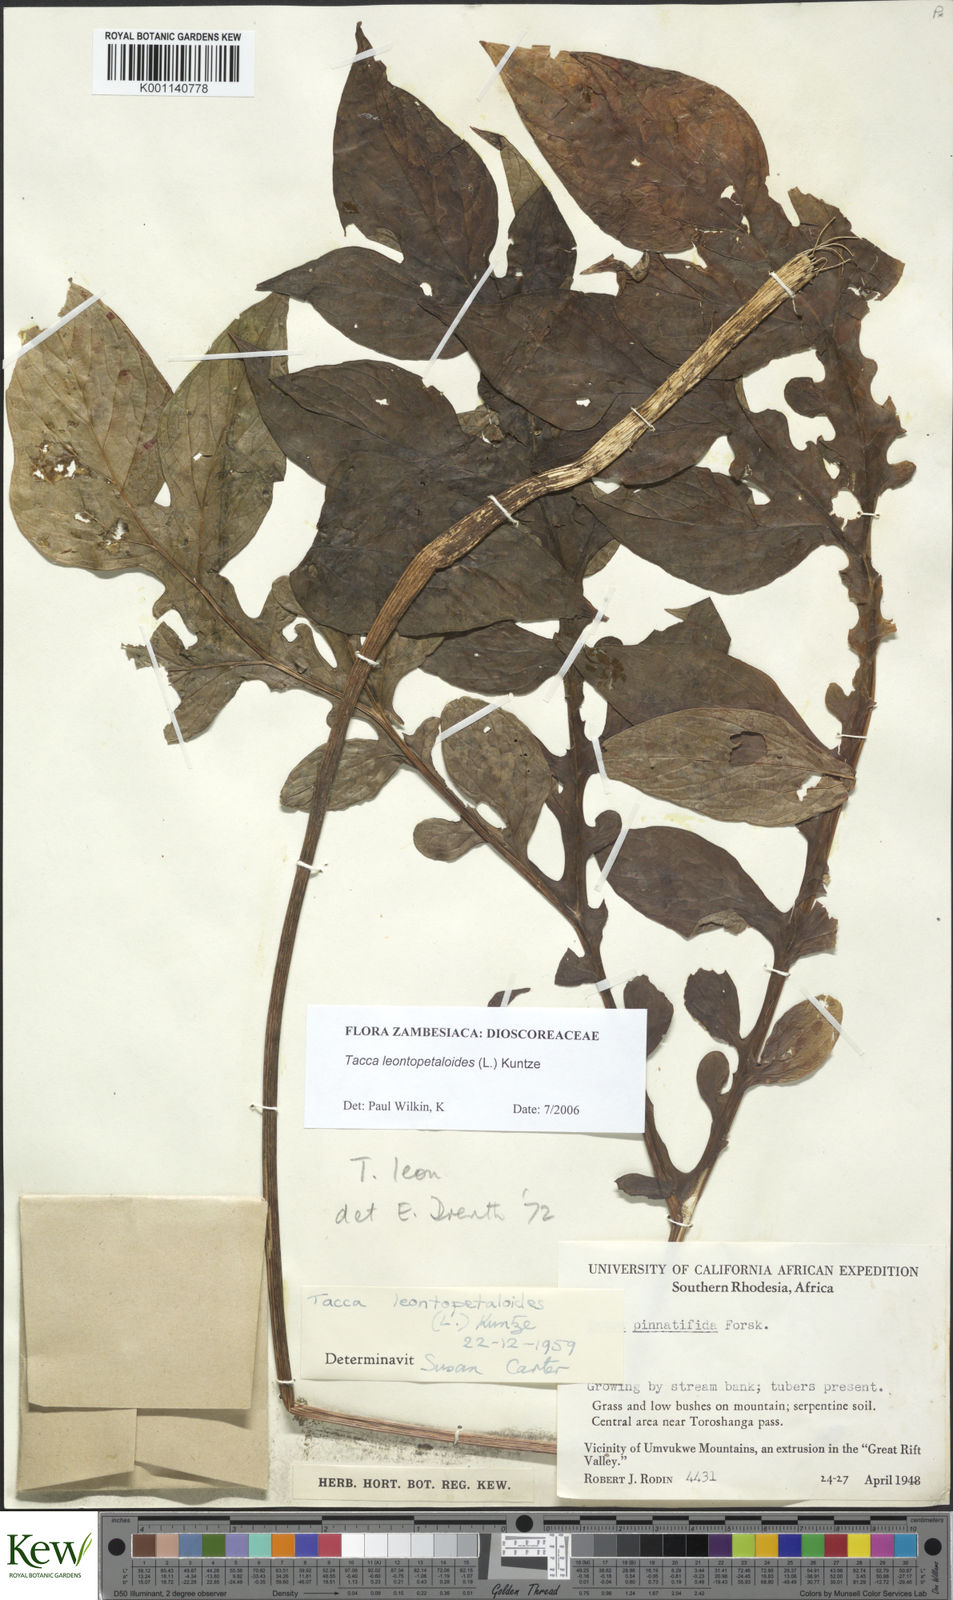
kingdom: Plantae
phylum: Tracheophyta
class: Liliopsida
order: Dioscoreales
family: Dioscoreaceae
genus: Tacca
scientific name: Tacca leontopetaloides
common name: Arrowroot
